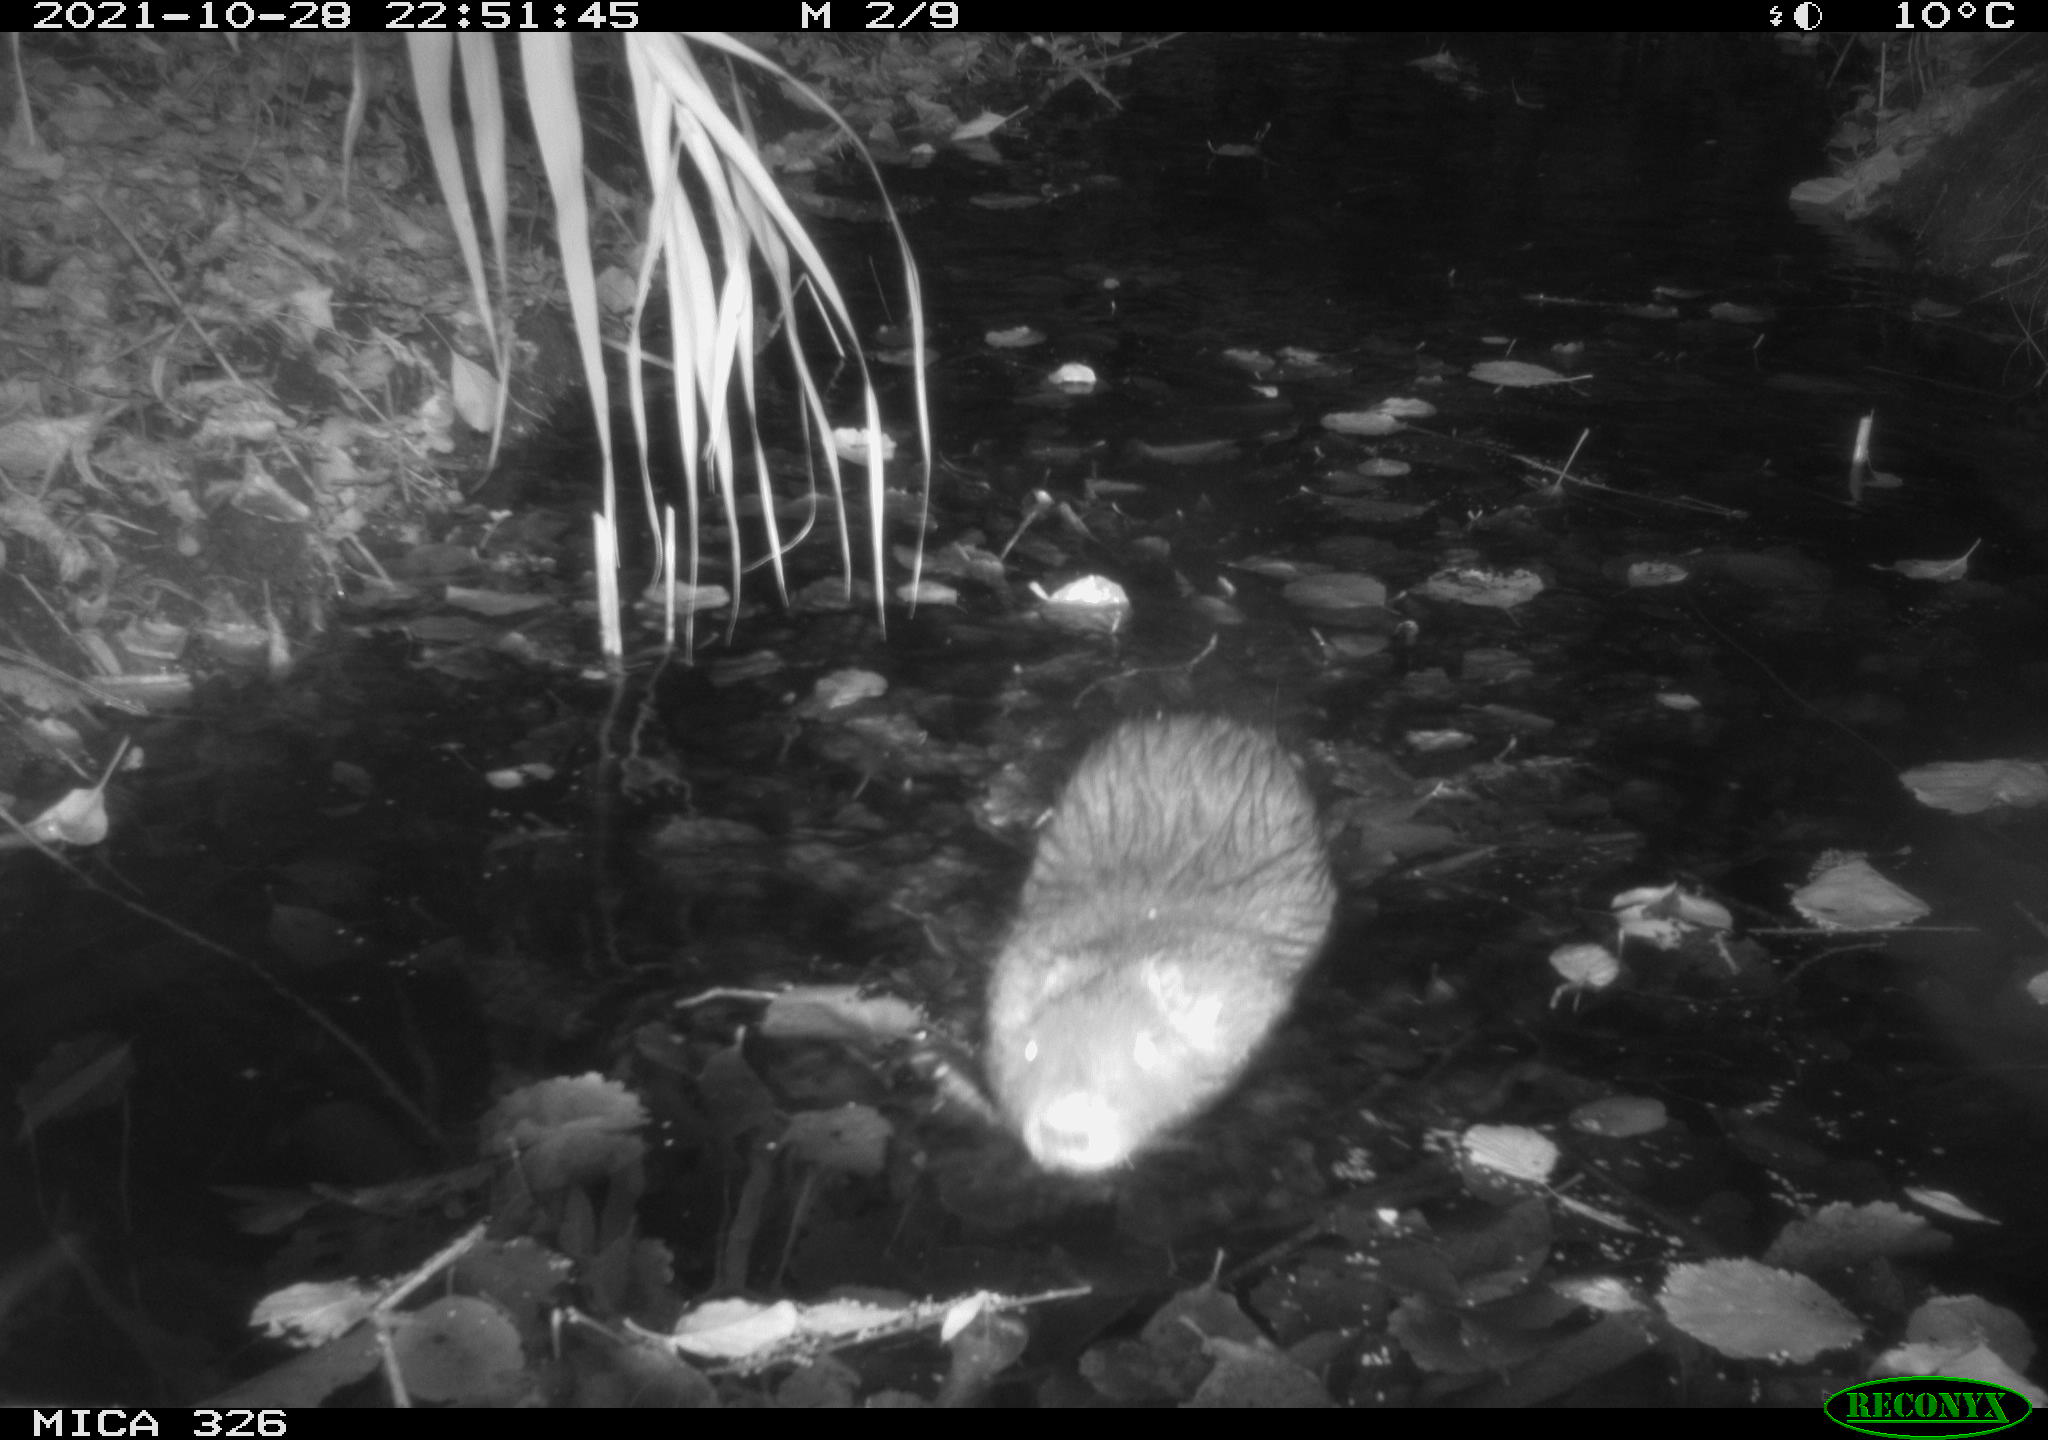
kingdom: Animalia
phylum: Chordata
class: Mammalia
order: Rodentia
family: Myocastoridae
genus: Myocastor
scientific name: Myocastor coypus
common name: Coypu
